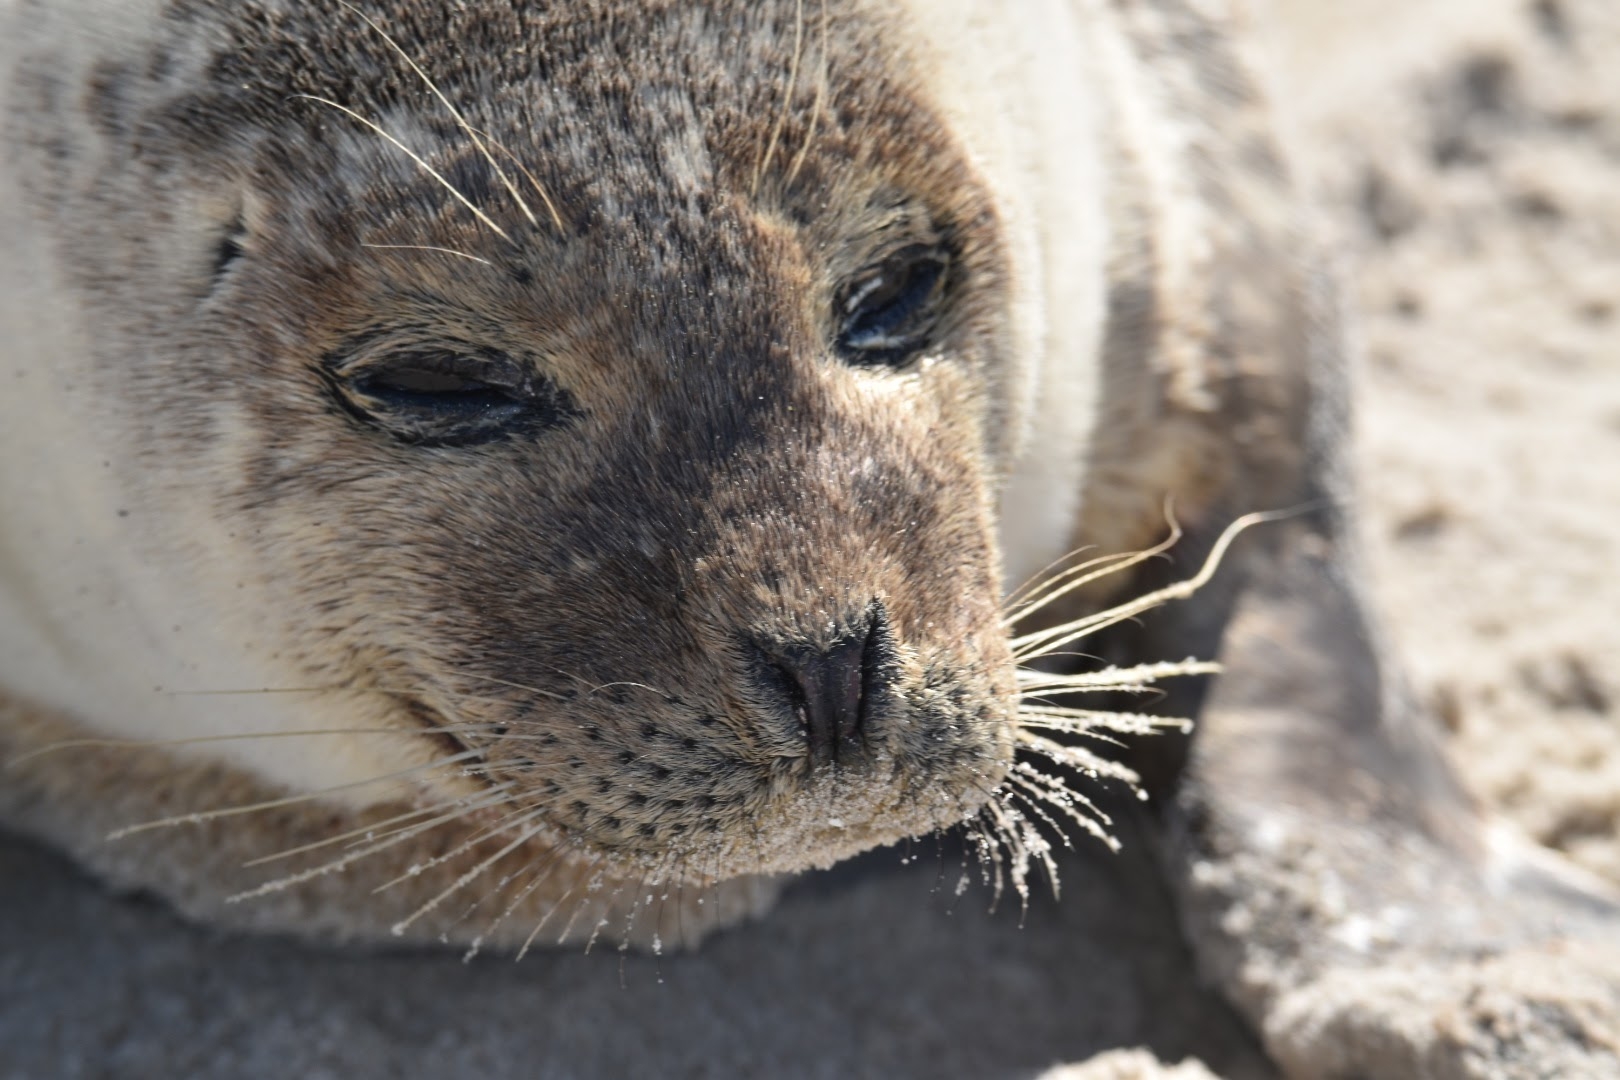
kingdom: Animalia
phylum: Chordata
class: Mammalia
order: Carnivora
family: Phocidae
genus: Halichoerus
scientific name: Halichoerus grypus
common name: Gråsæl
